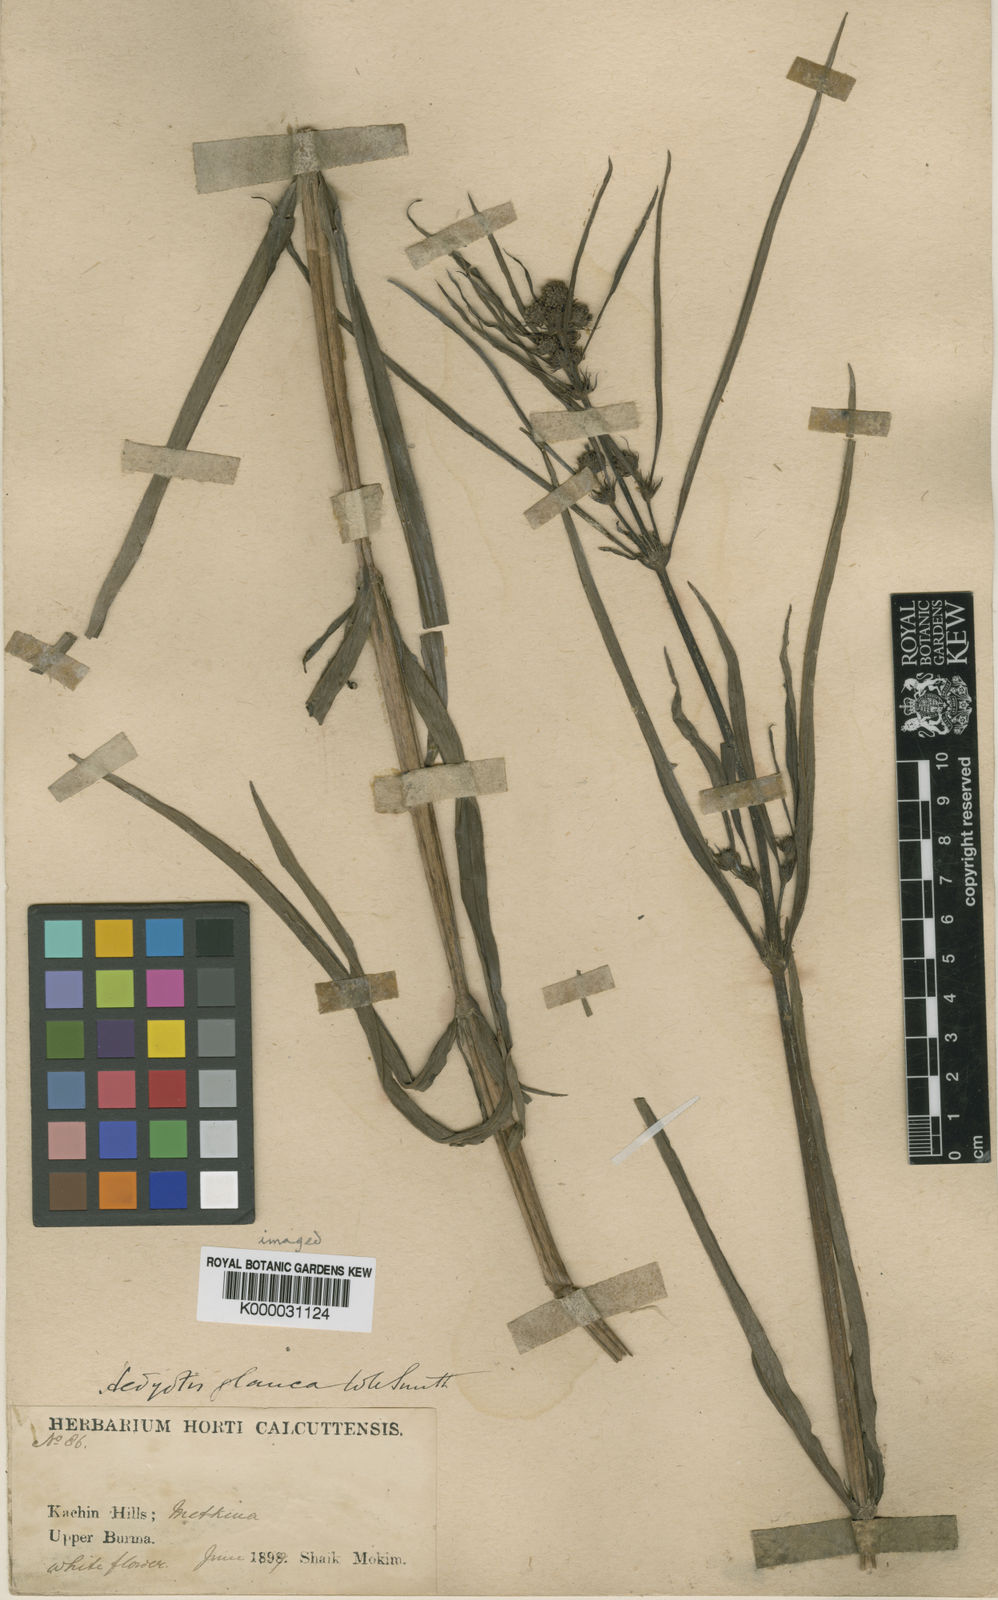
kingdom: Plantae
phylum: Tracheophyta
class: Magnoliopsida
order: Gentianales
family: Rubiaceae
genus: Knoxia
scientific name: Knoxia roxburghii
